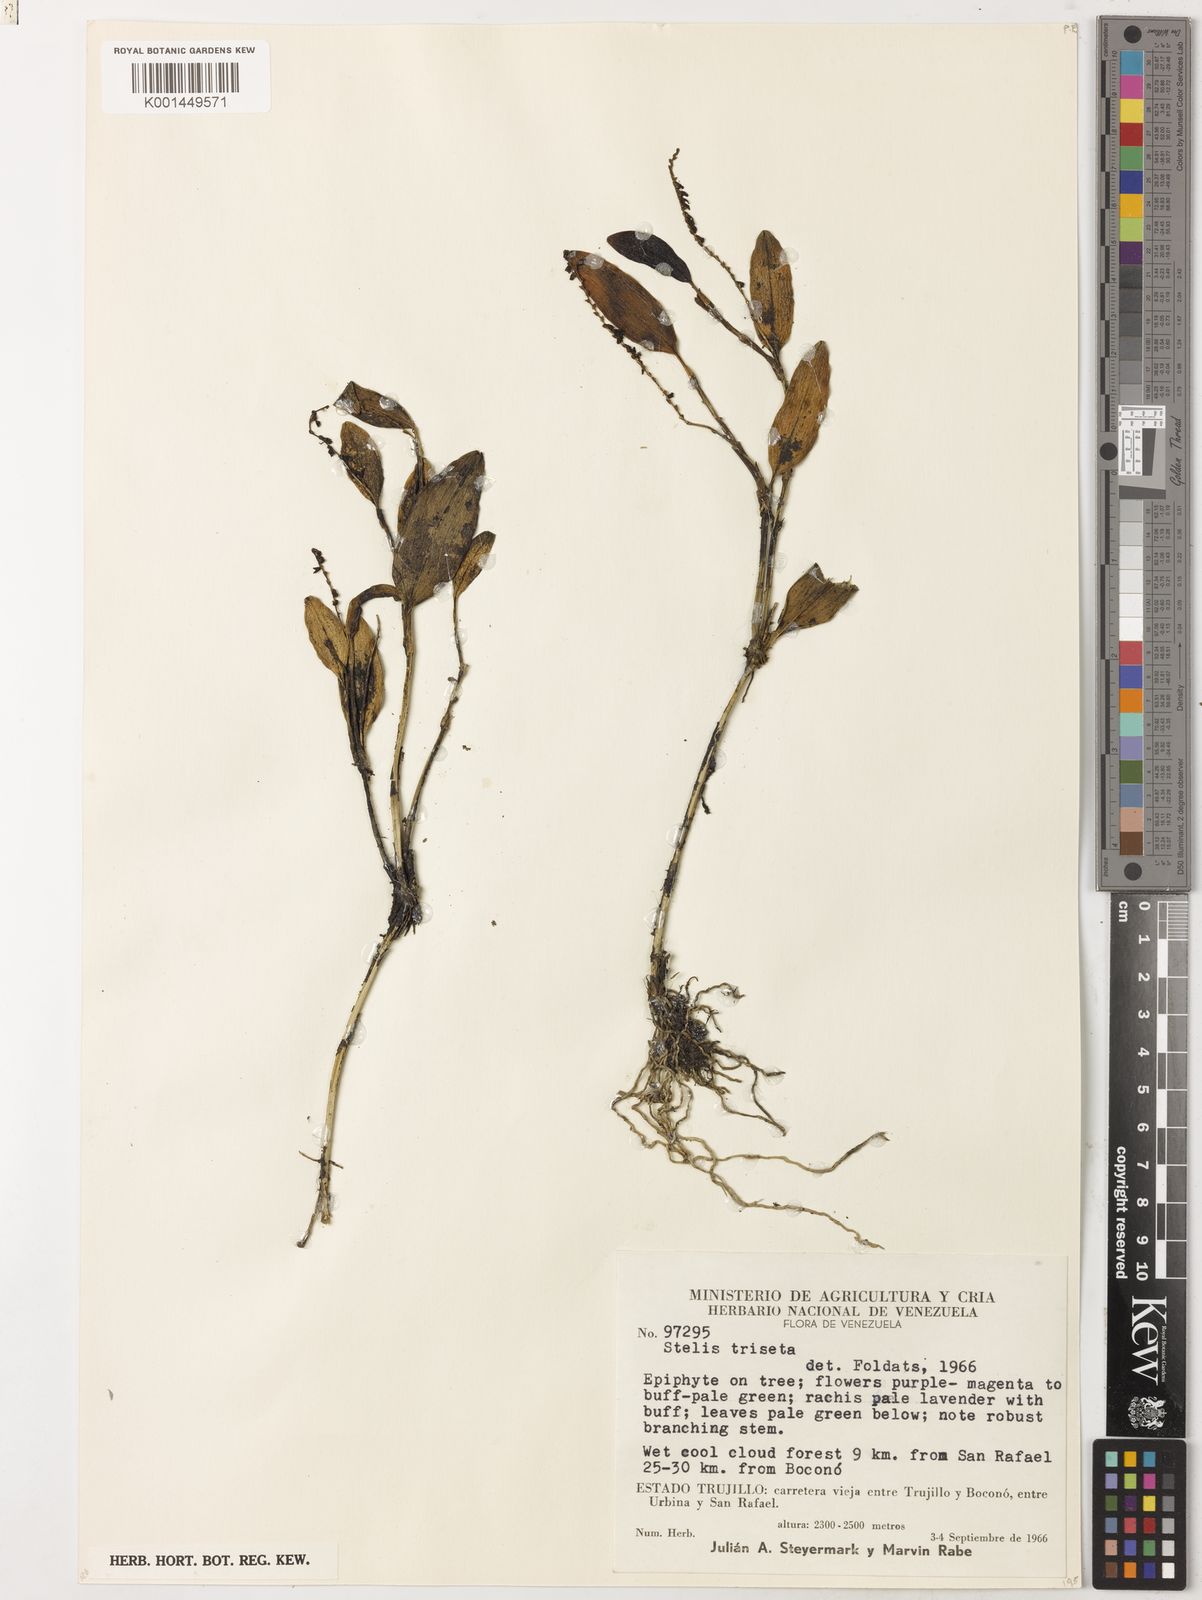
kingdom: Plantae
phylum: Tracheophyta
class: Liliopsida
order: Asparagales
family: Orchidaceae
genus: Stelis
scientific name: Stelis triseta
